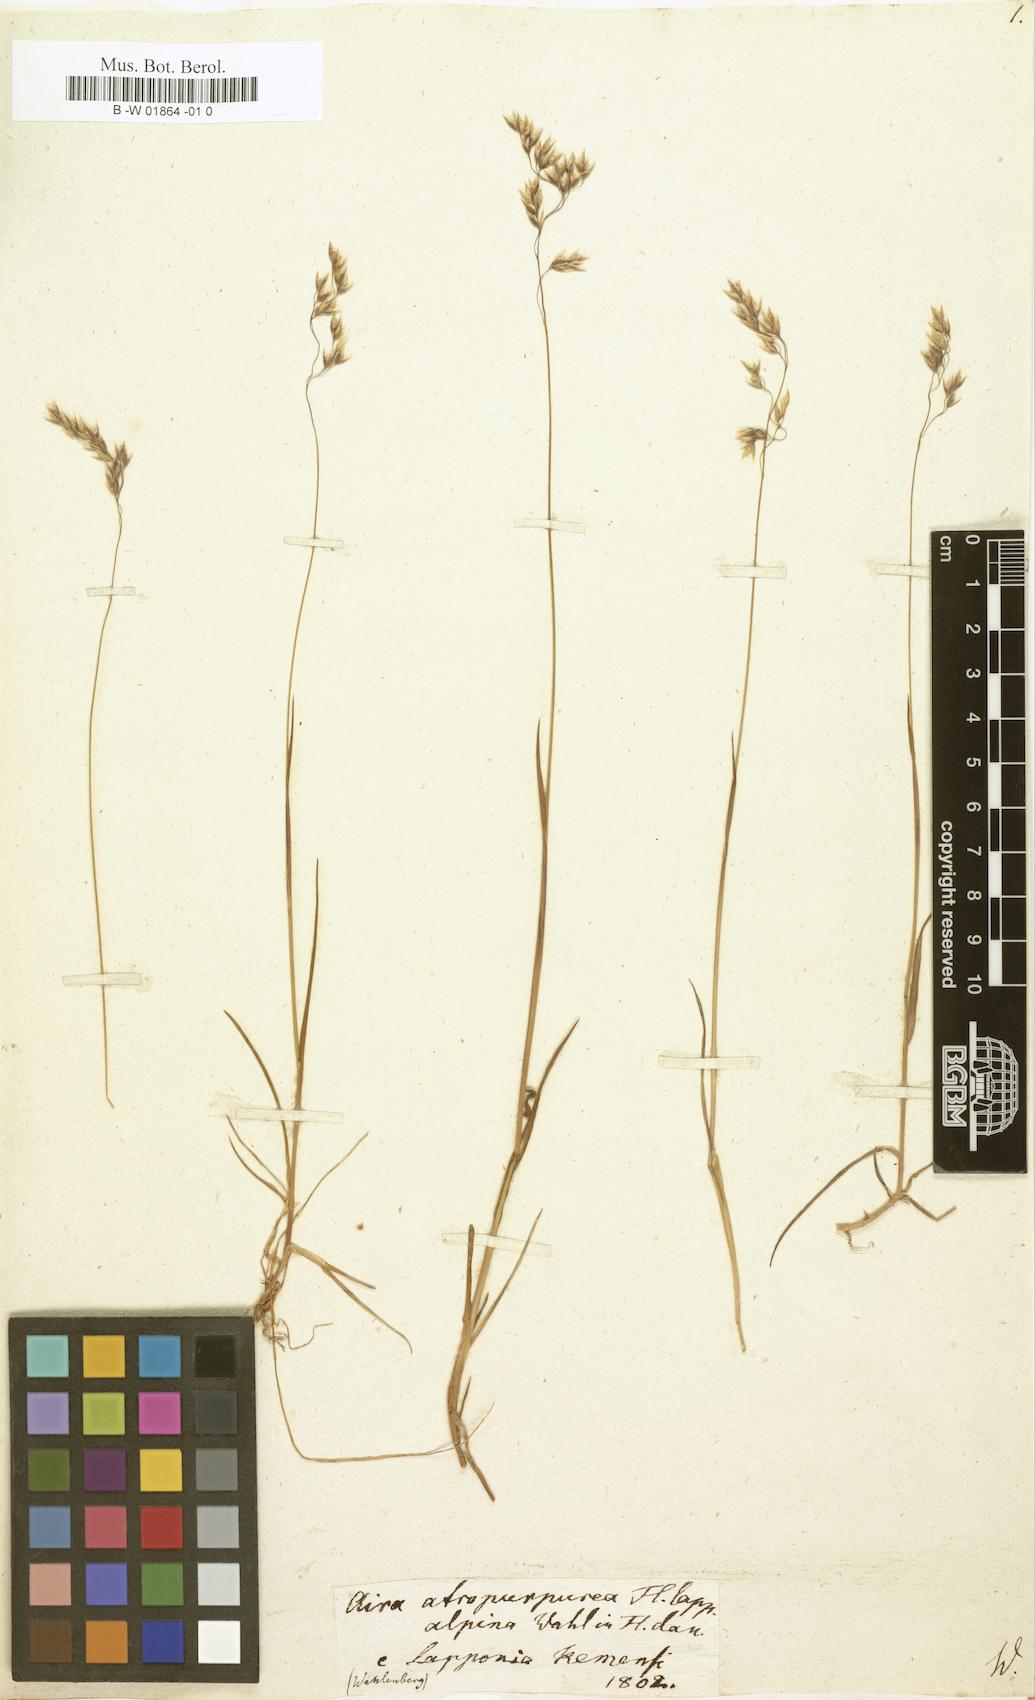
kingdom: Plantae
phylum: Tracheophyta
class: Liliopsida
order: Poales
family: Poaceae
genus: Vahlodea
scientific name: Vahlodea atropurpurea
